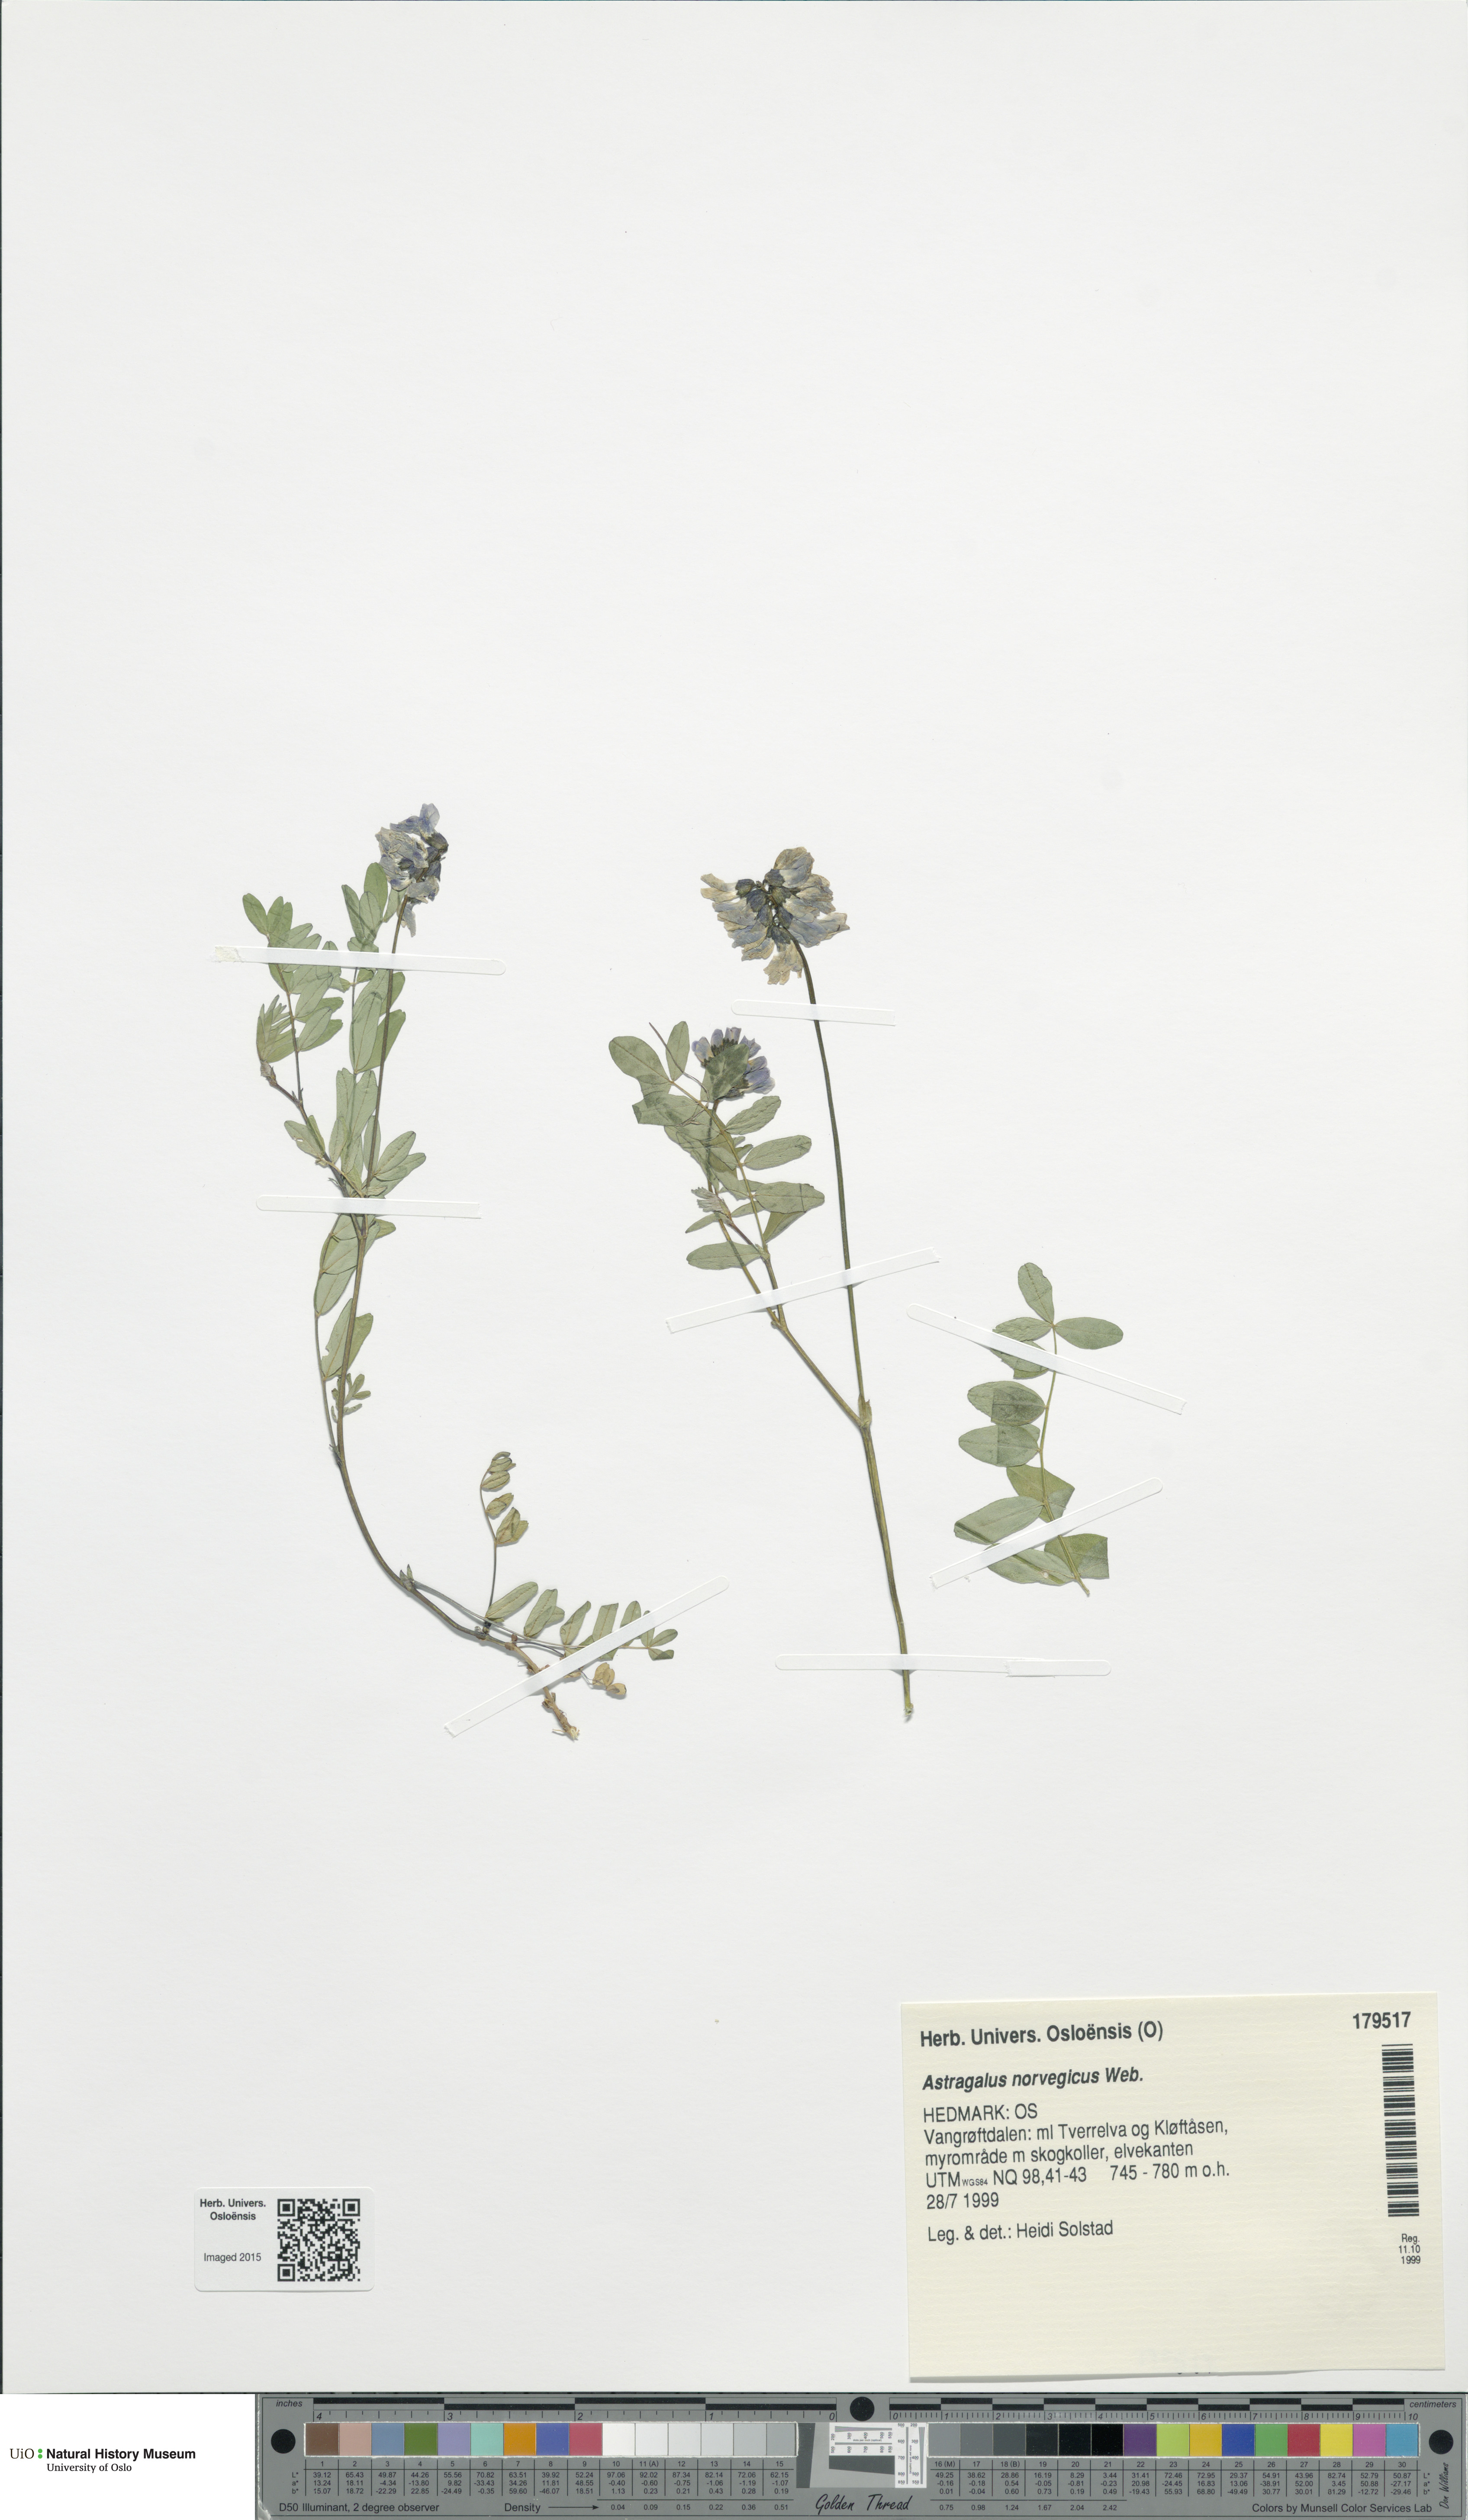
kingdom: Plantae
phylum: Tracheophyta
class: Magnoliopsida
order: Fabales
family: Fabaceae
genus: Astragalus
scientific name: Astragalus norvegicus
